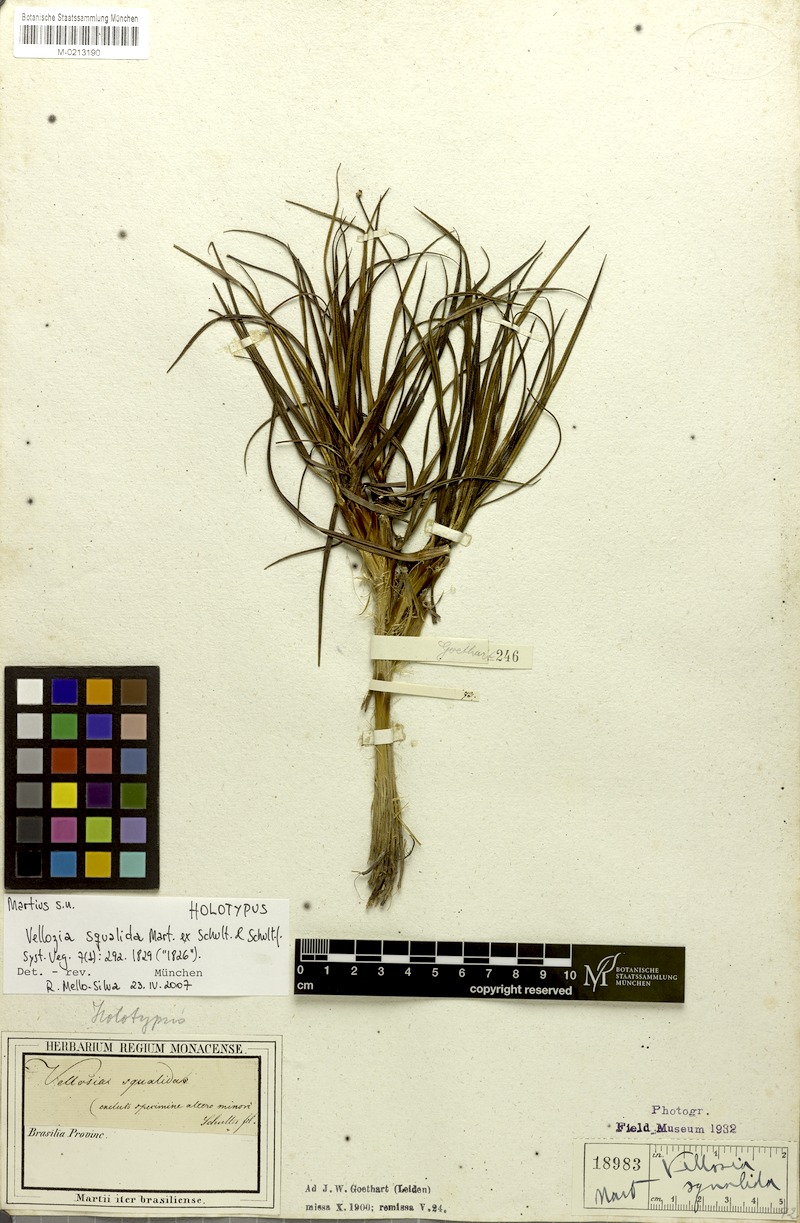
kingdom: Plantae
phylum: Tracheophyta
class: Liliopsida
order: Pandanales
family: Velloziaceae
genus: Vellozia
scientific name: Vellozia squalida
